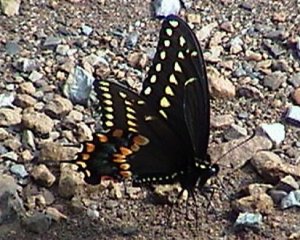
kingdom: Animalia
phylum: Arthropoda
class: Insecta
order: Lepidoptera
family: Papilionidae
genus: Papilio
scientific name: Papilio polyxenes
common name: Black Swallowtail
